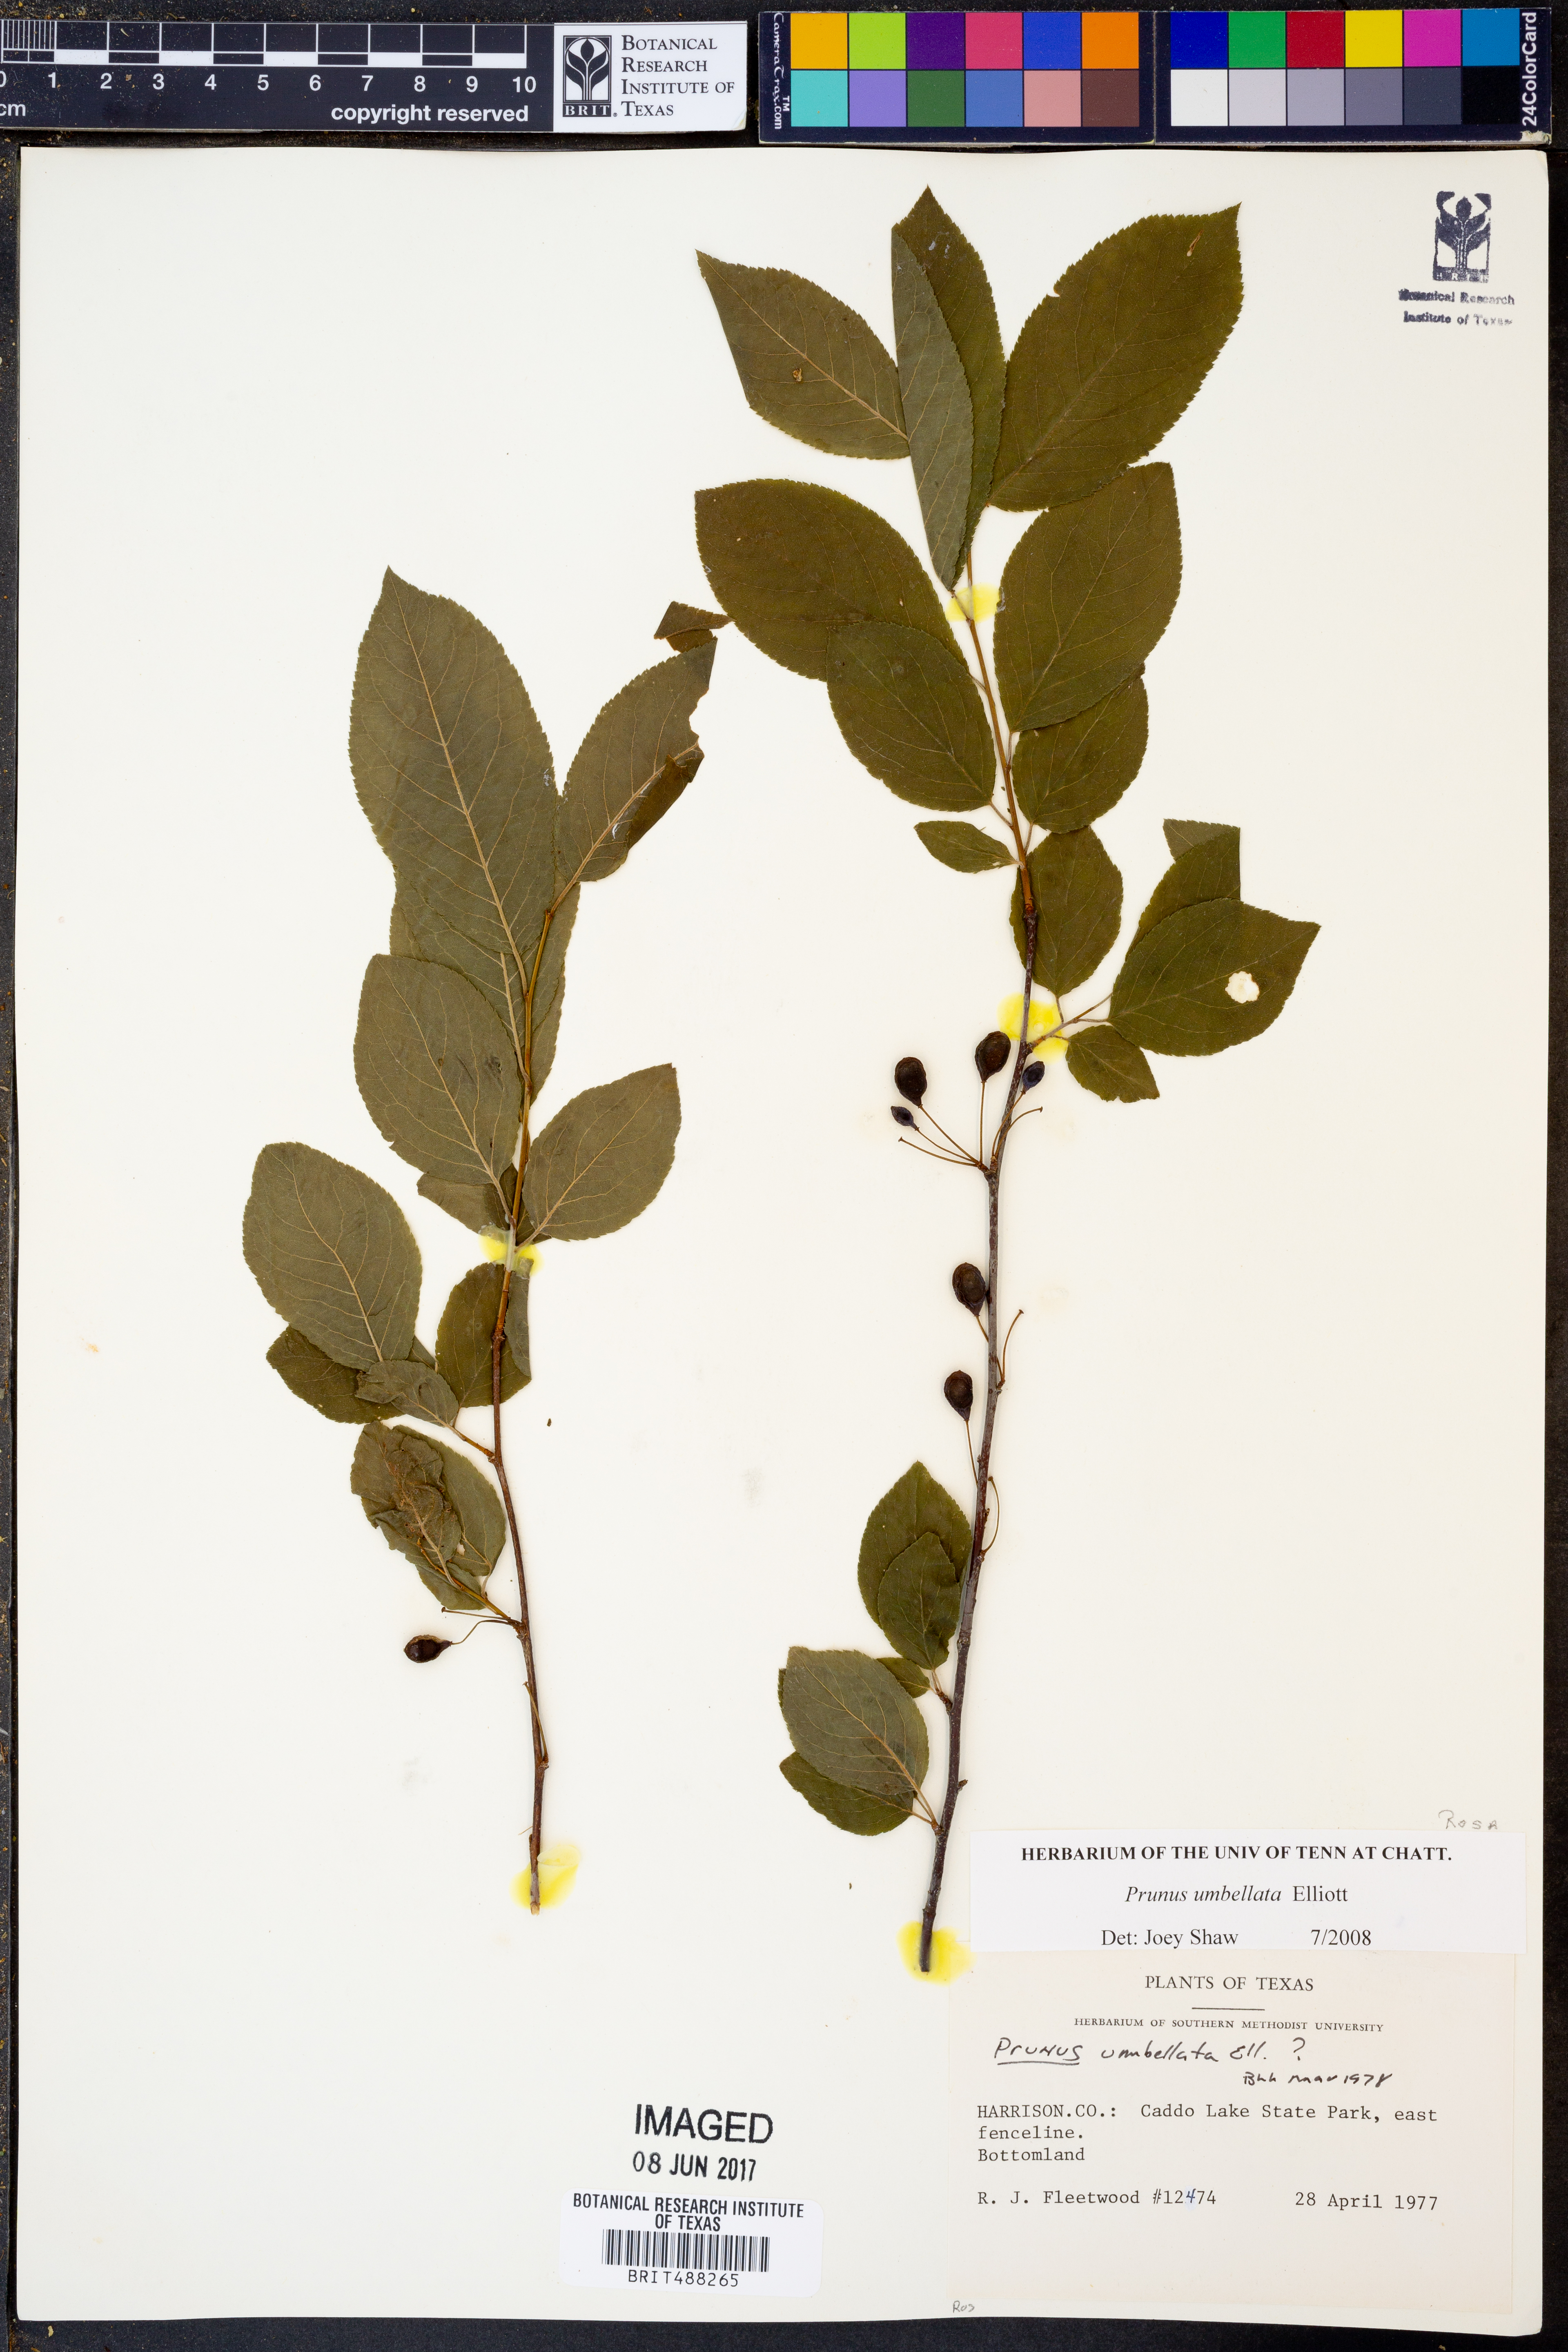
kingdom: Plantae
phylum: Tracheophyta
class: Magnoliopsida
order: Rosales
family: Rosaceae
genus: Prunus
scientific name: Prunus umbellata
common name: Allegheny plum
